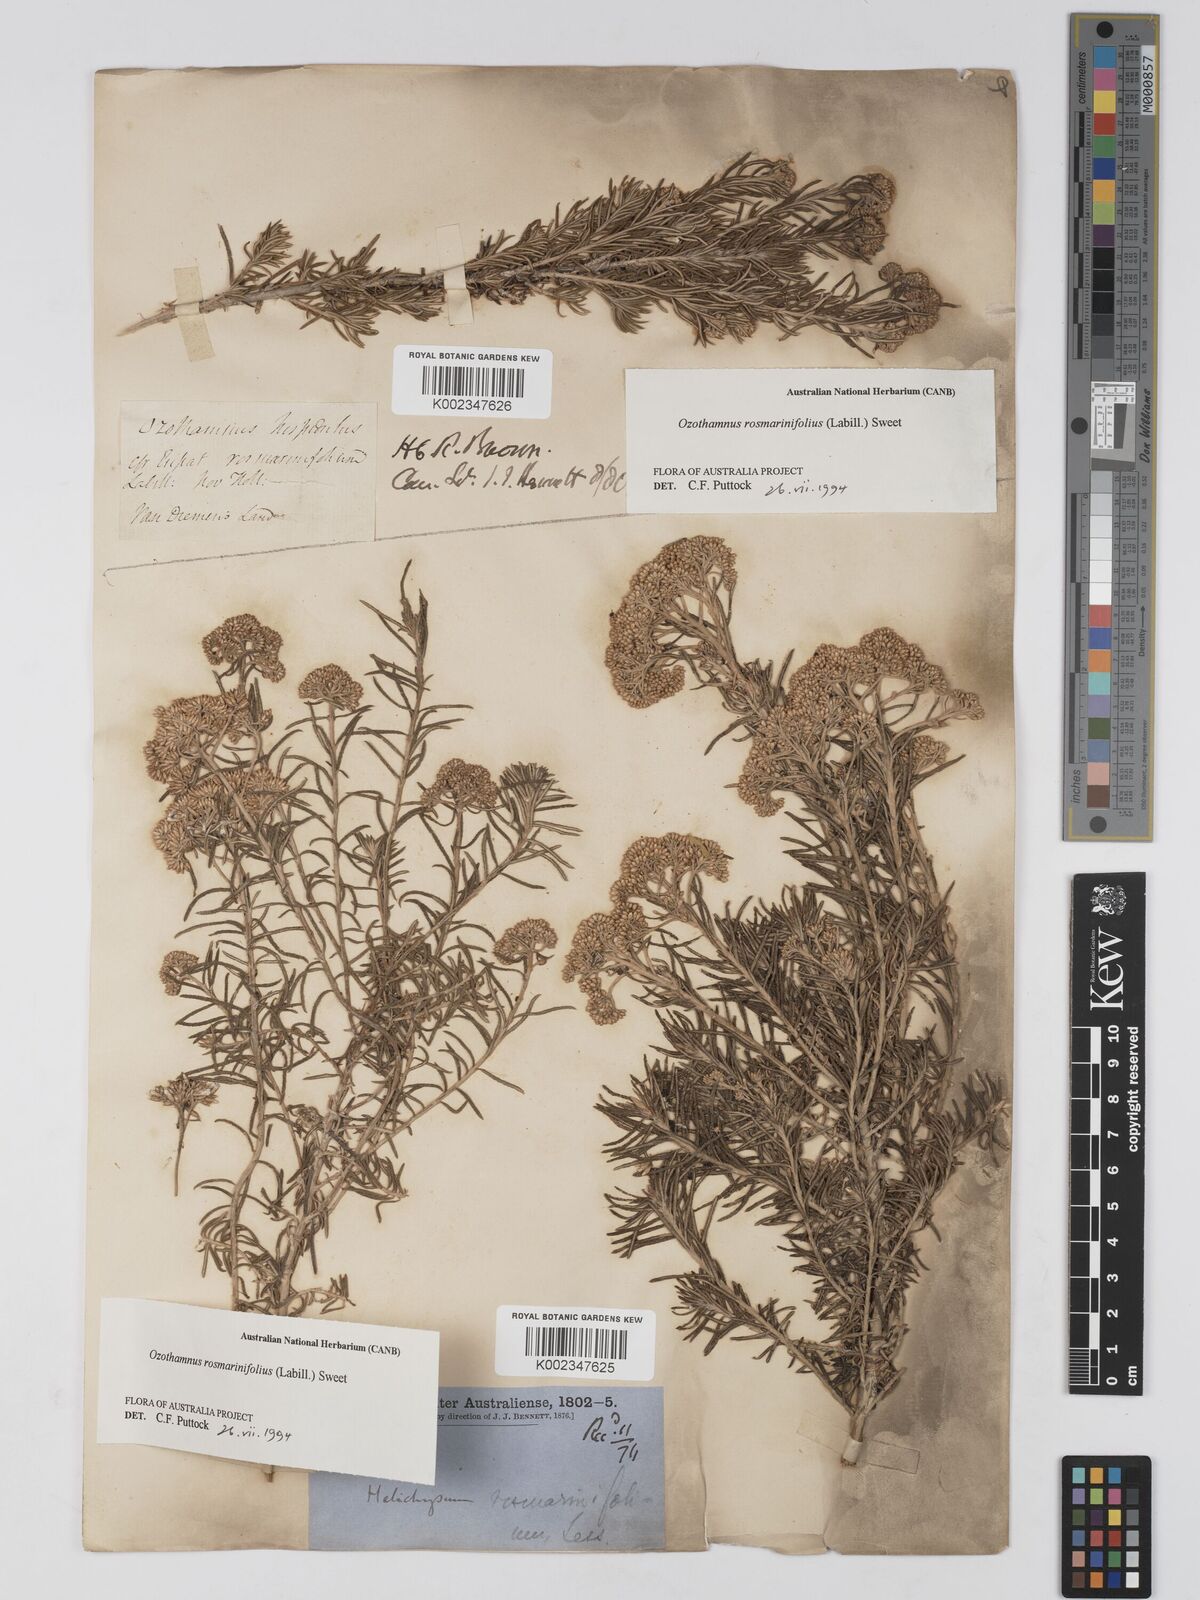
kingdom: Plantae
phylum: Tracheophyta
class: Magnoliopsida
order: Asterales
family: Asteraceae
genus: Ozothamnus
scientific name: Ozothamnus rosmarinifolius
